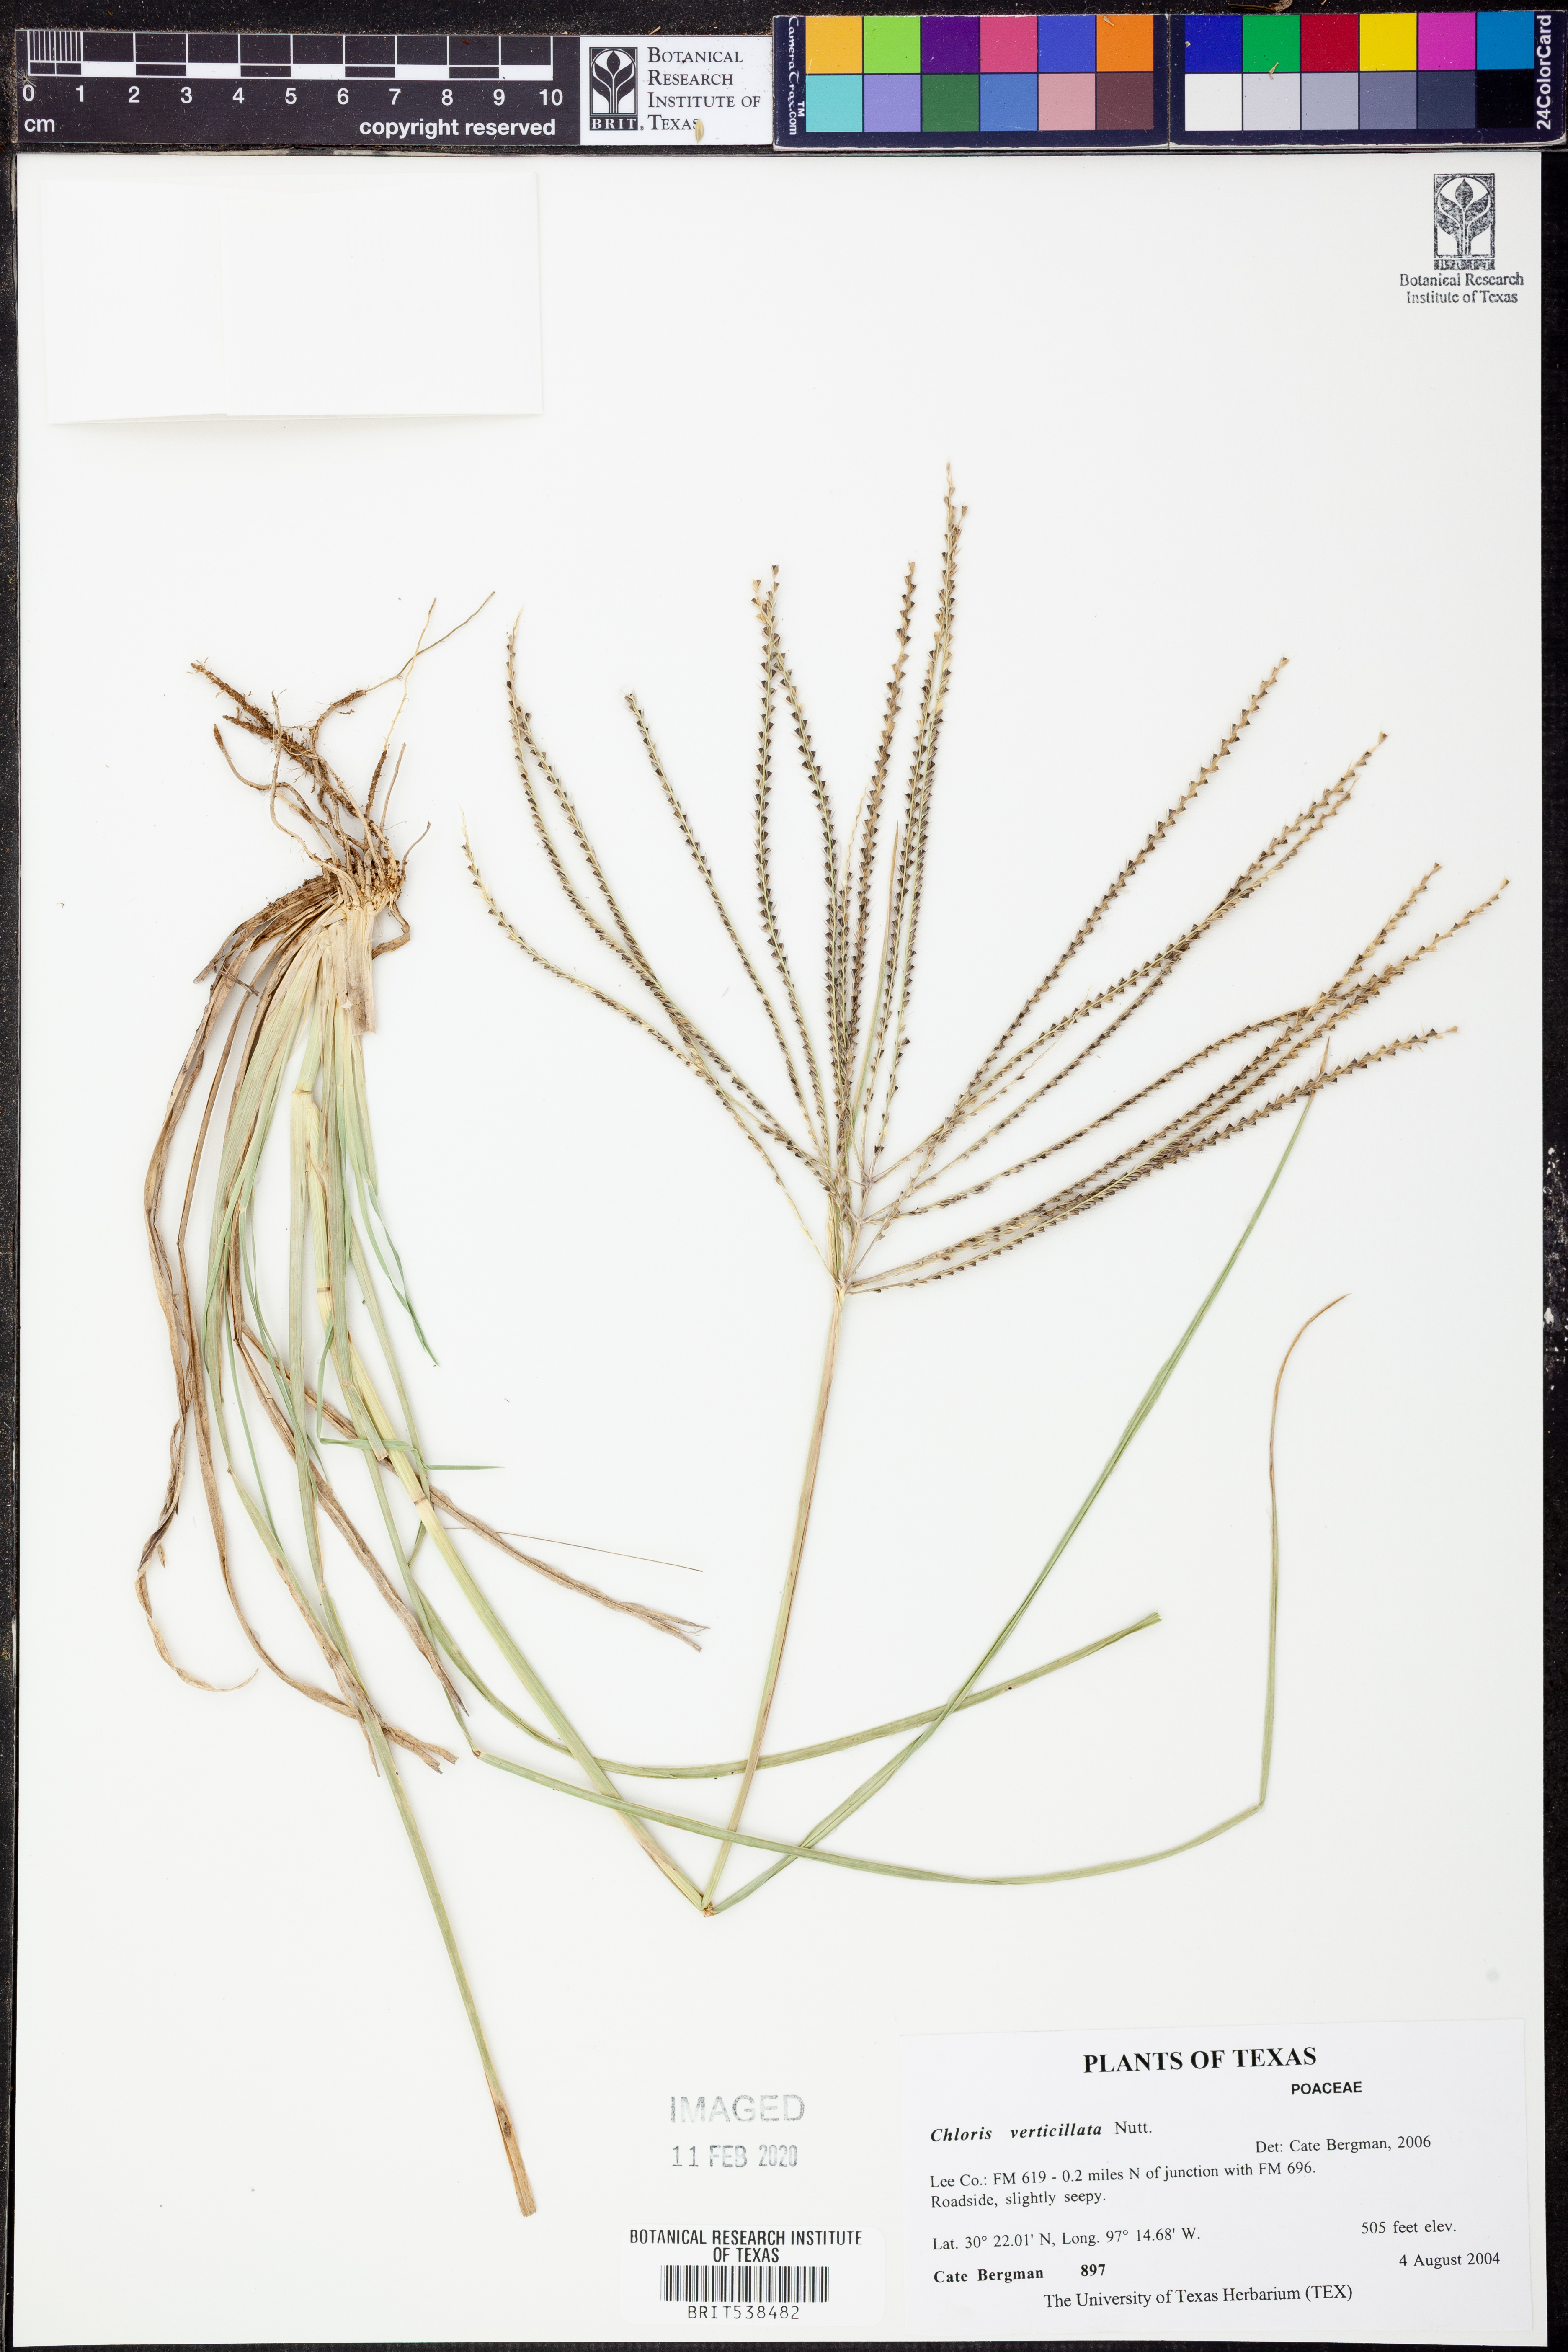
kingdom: Plantae
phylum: Tracheophyta
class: Liliopsida
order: Poales
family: Poaceae
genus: Chloris
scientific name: Chloris verticillata
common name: Tumble windmill grass
